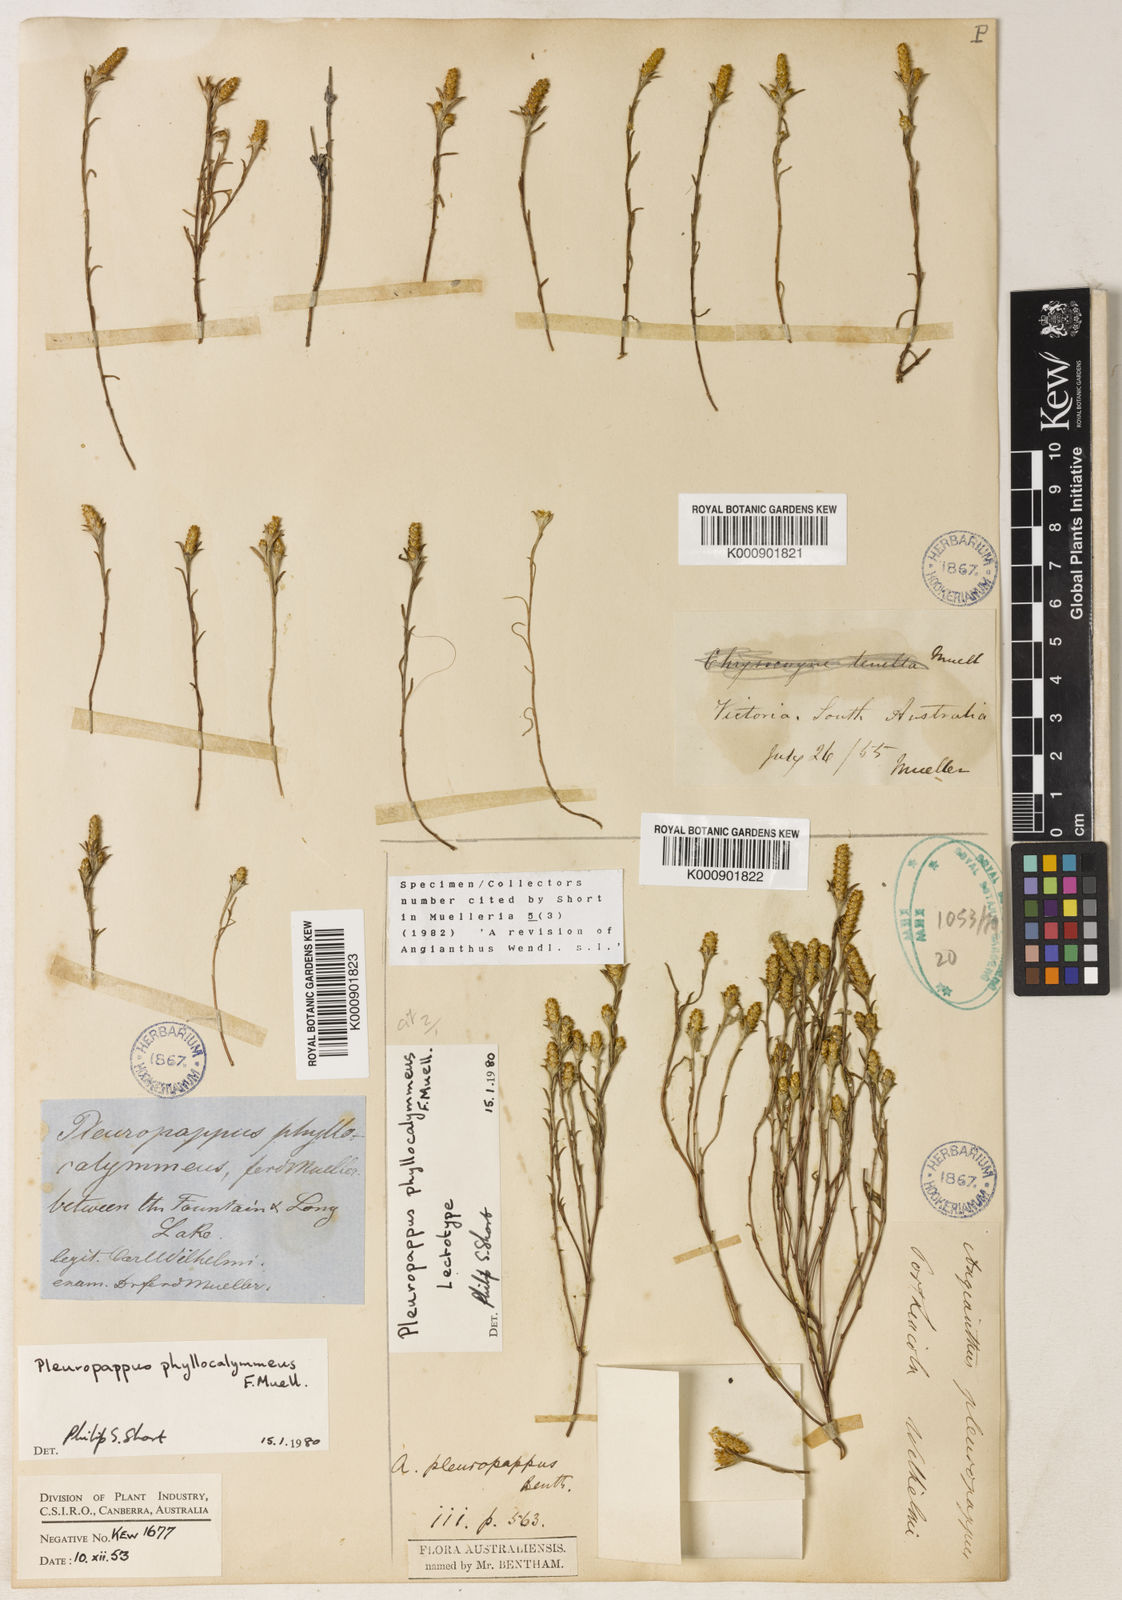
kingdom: Plantae
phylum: Tracheophyta
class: Magnoliopsida
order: Asterales
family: Asteraceae
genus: Angianthus
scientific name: Angianthus phyllocalymmeus
